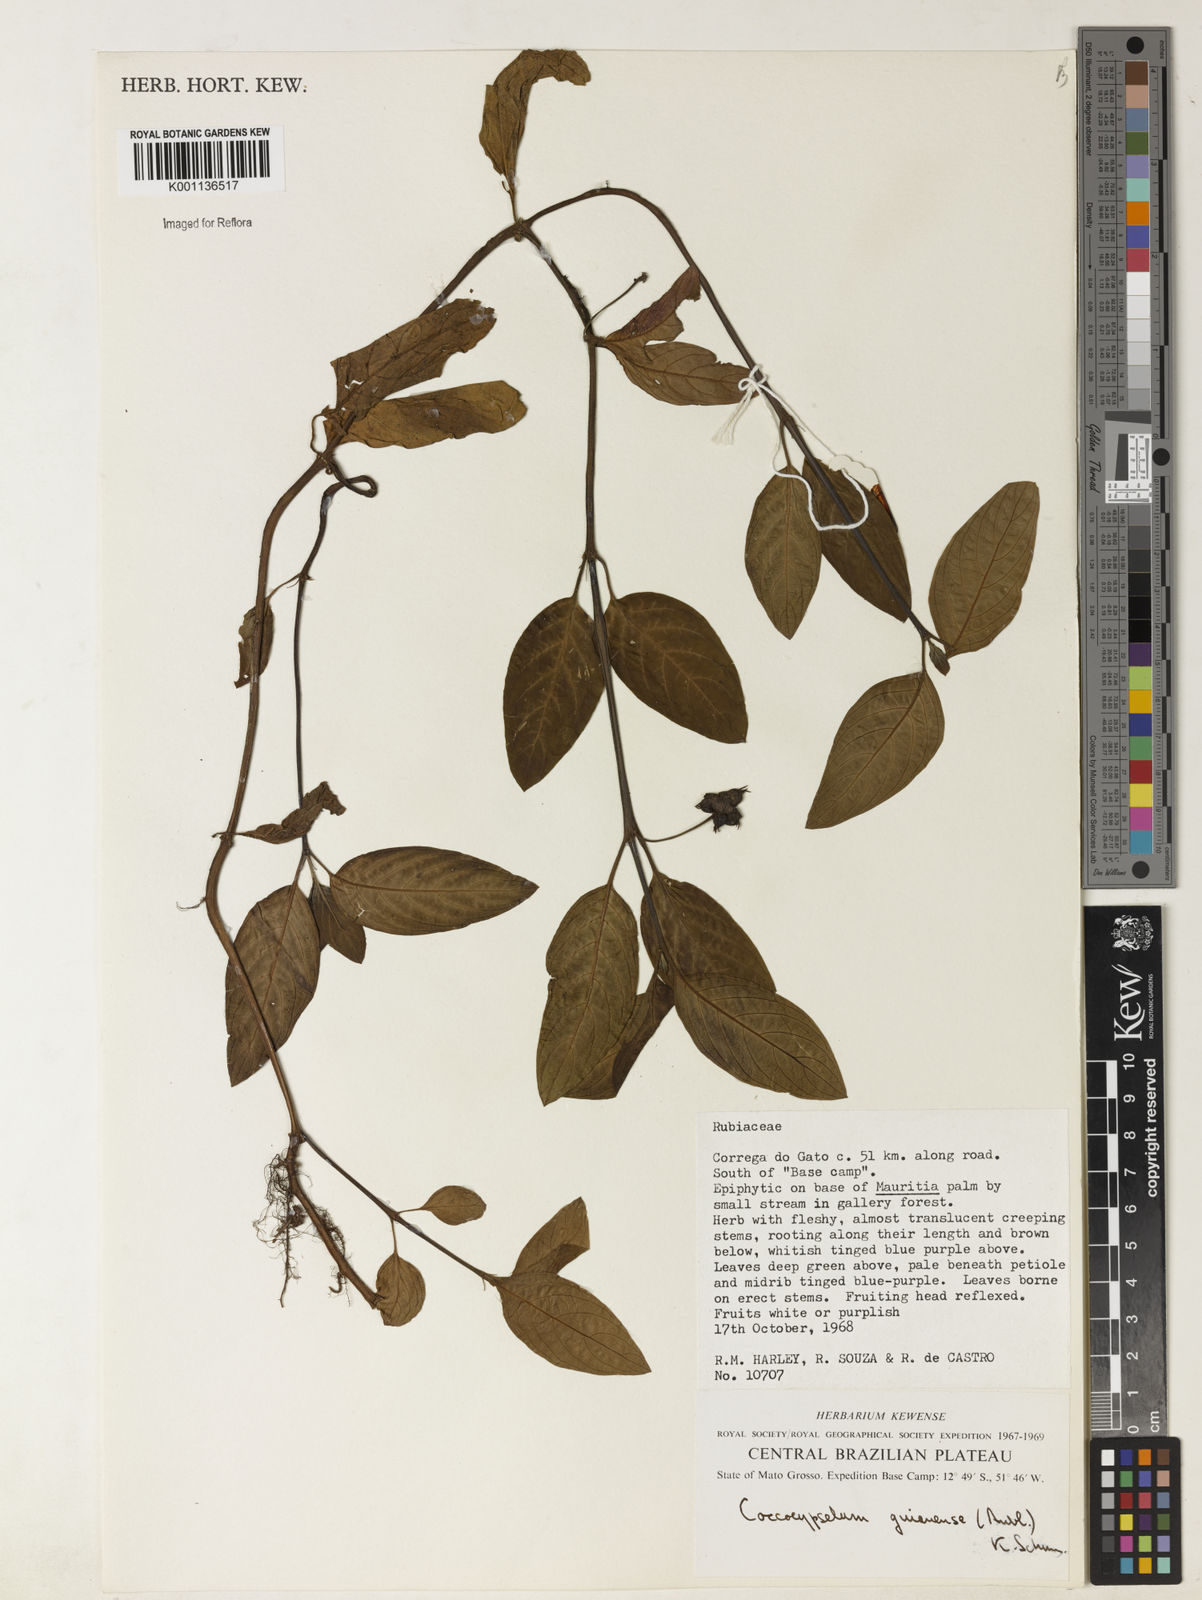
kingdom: Plantae
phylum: Tracheophyta
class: Magnoliopsida
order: Gentianales
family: Rubiaceae
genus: Coccocypselum
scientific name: Coccocypselum guianense
